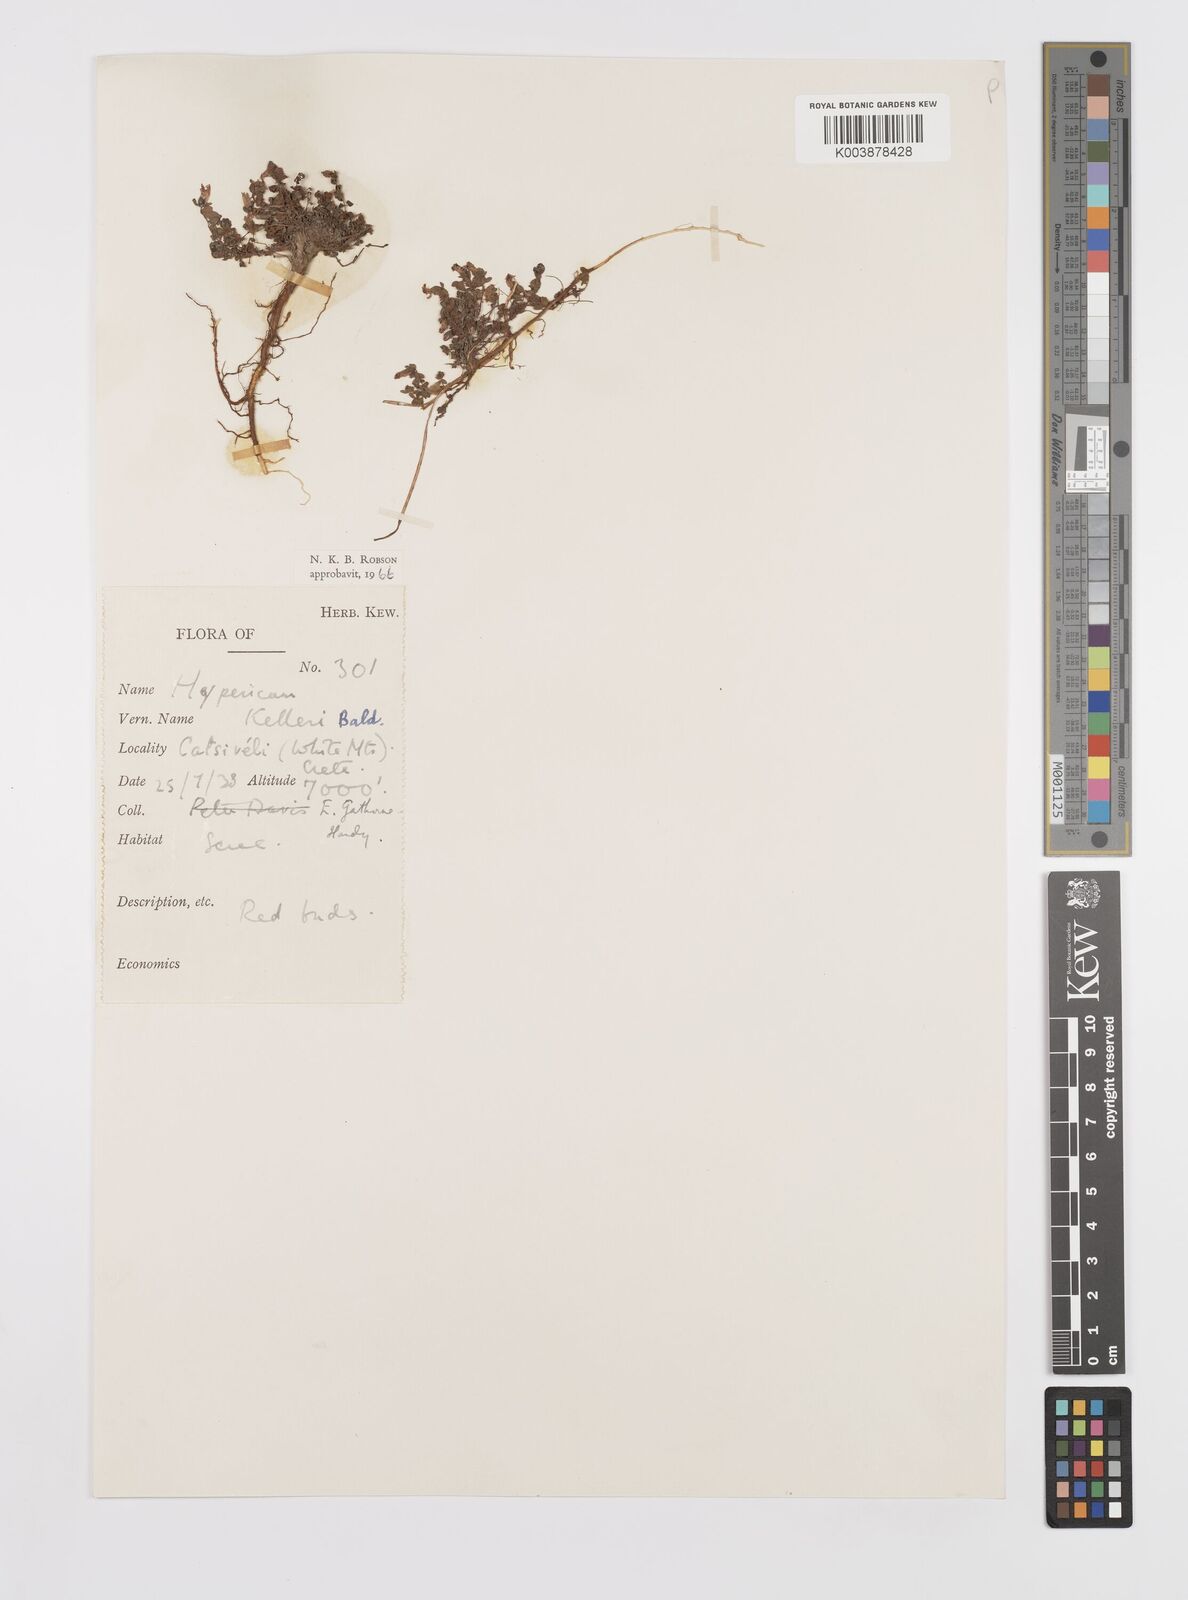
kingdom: Plantae
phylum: Tracheophyta
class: Magnoliopsida
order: Malpighiales
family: Hypericaceae
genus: Hypericum
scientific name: Hypericum kelleri
